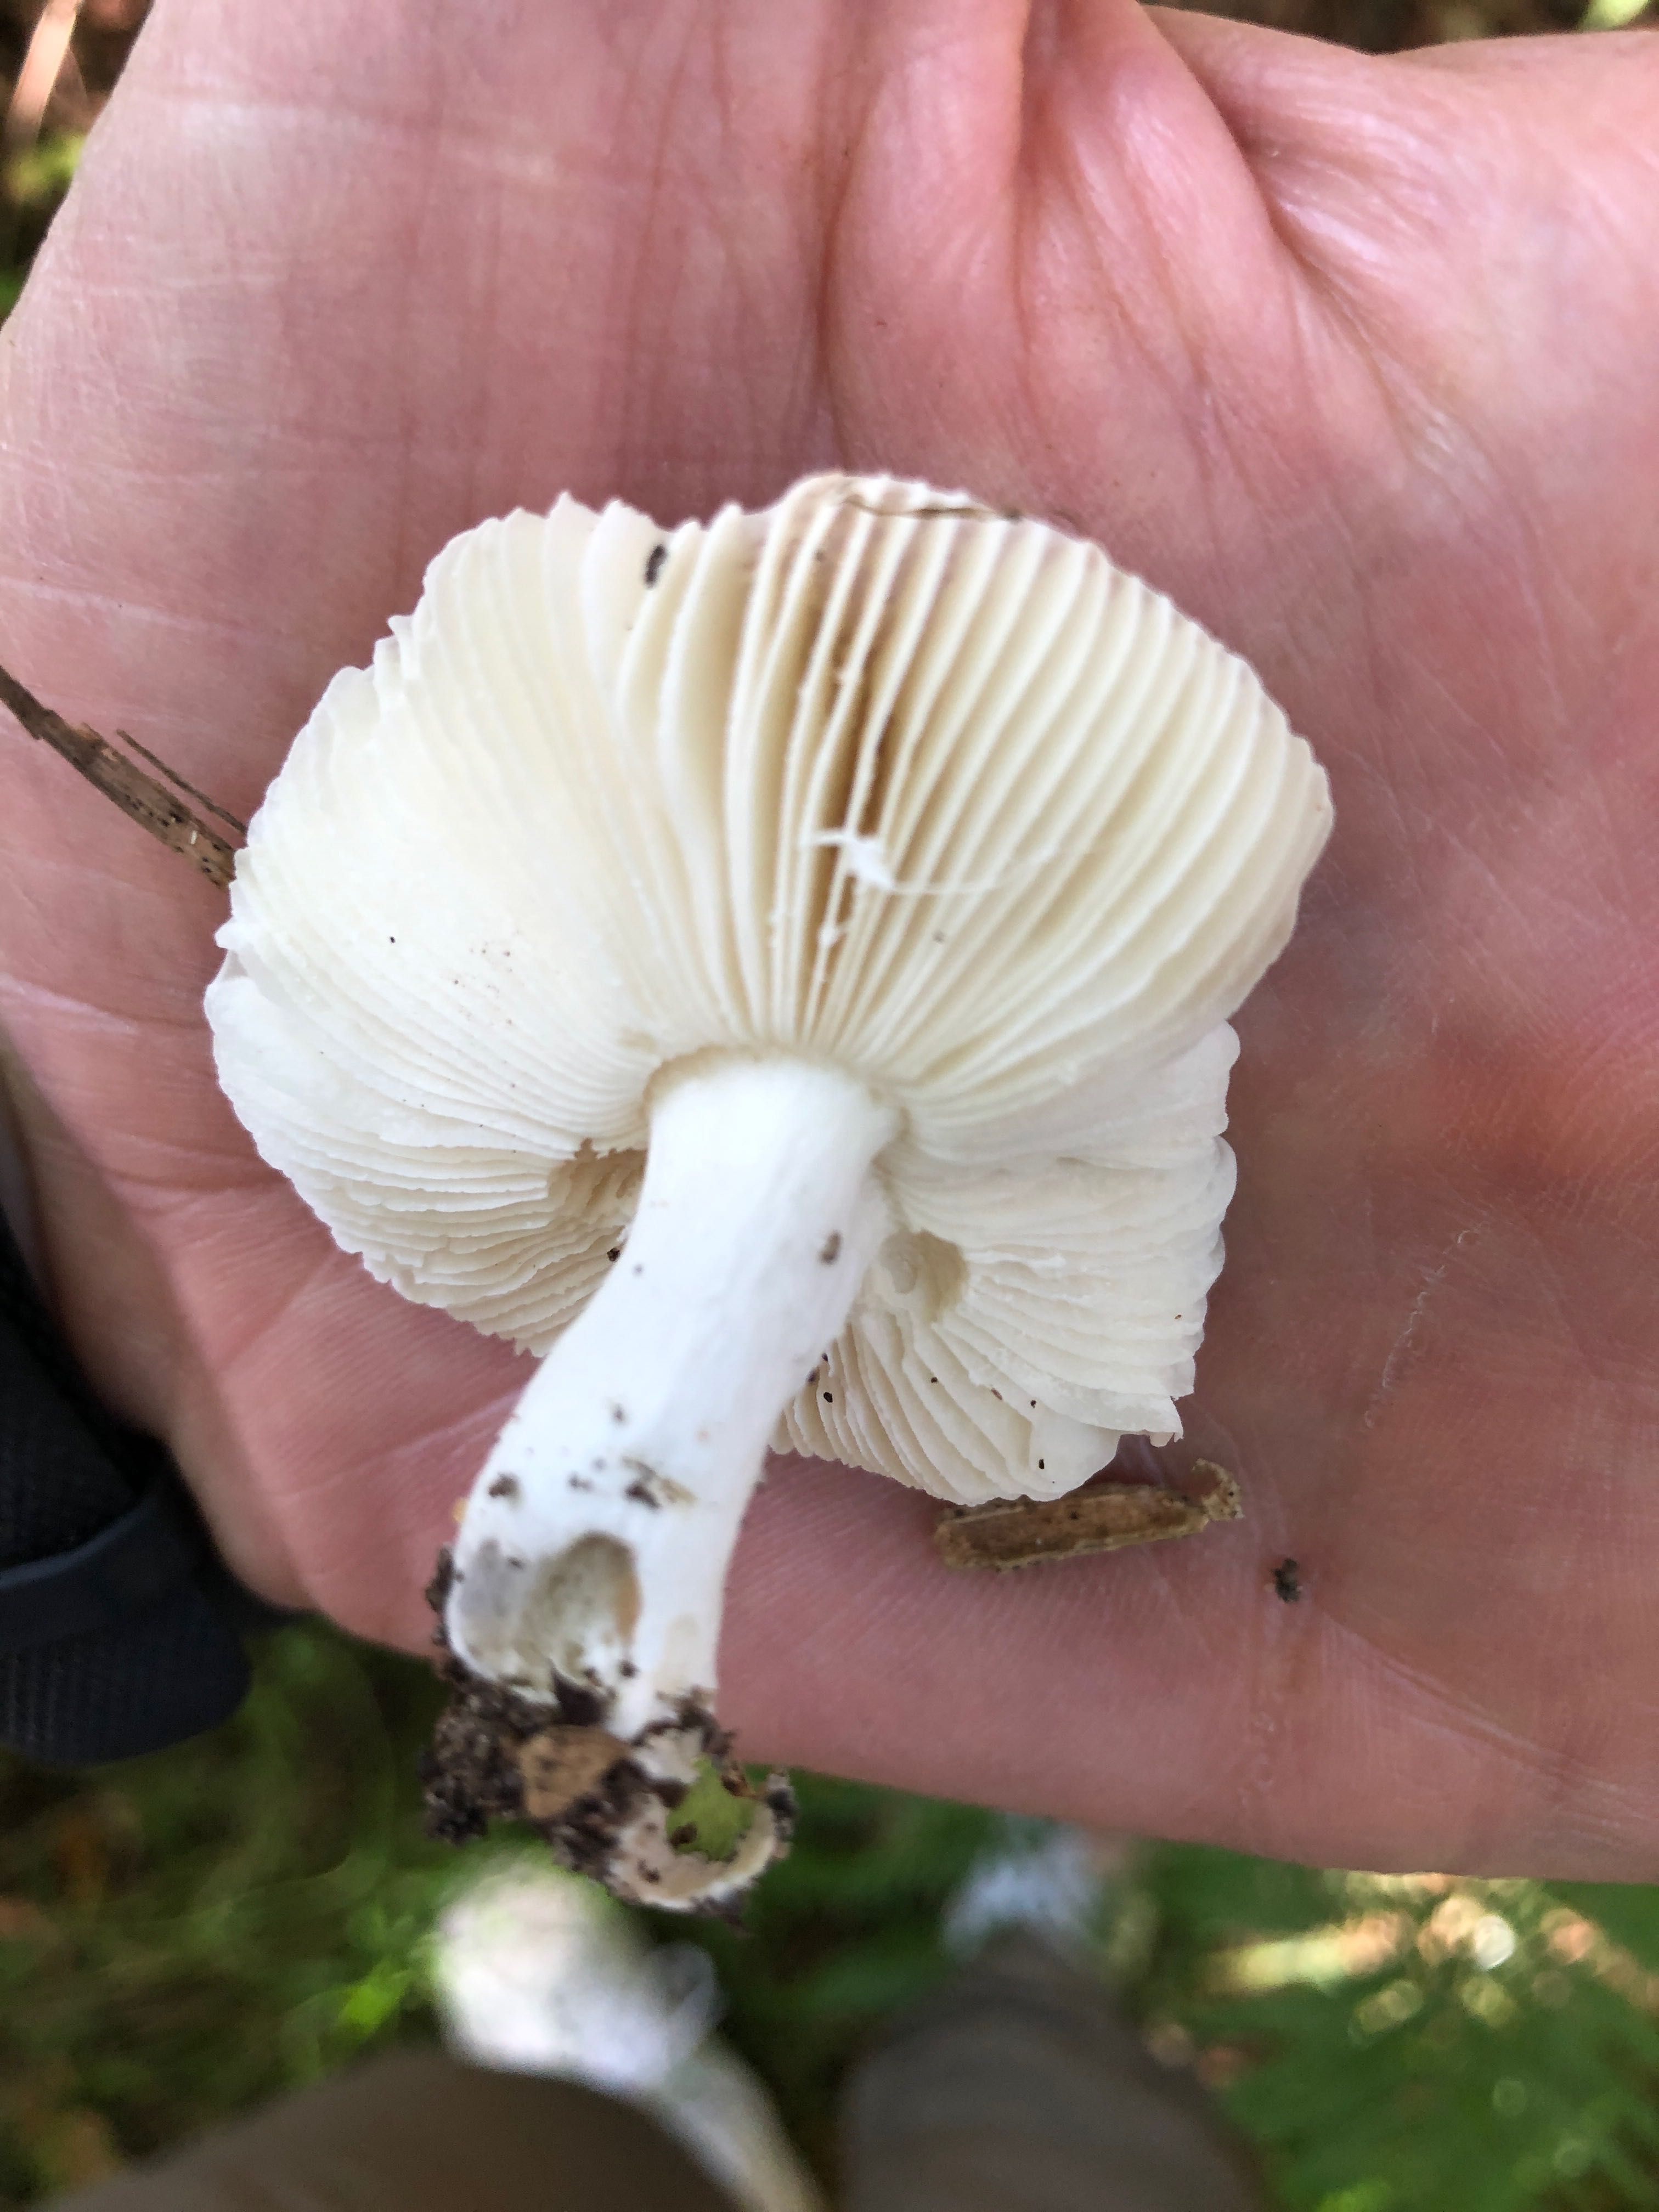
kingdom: Fungi
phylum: Basidiomycota
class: Agaricomycetes
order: Russulales
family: Russulaceae
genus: Russula
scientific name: Russula fragilis
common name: savbladet skørhat
